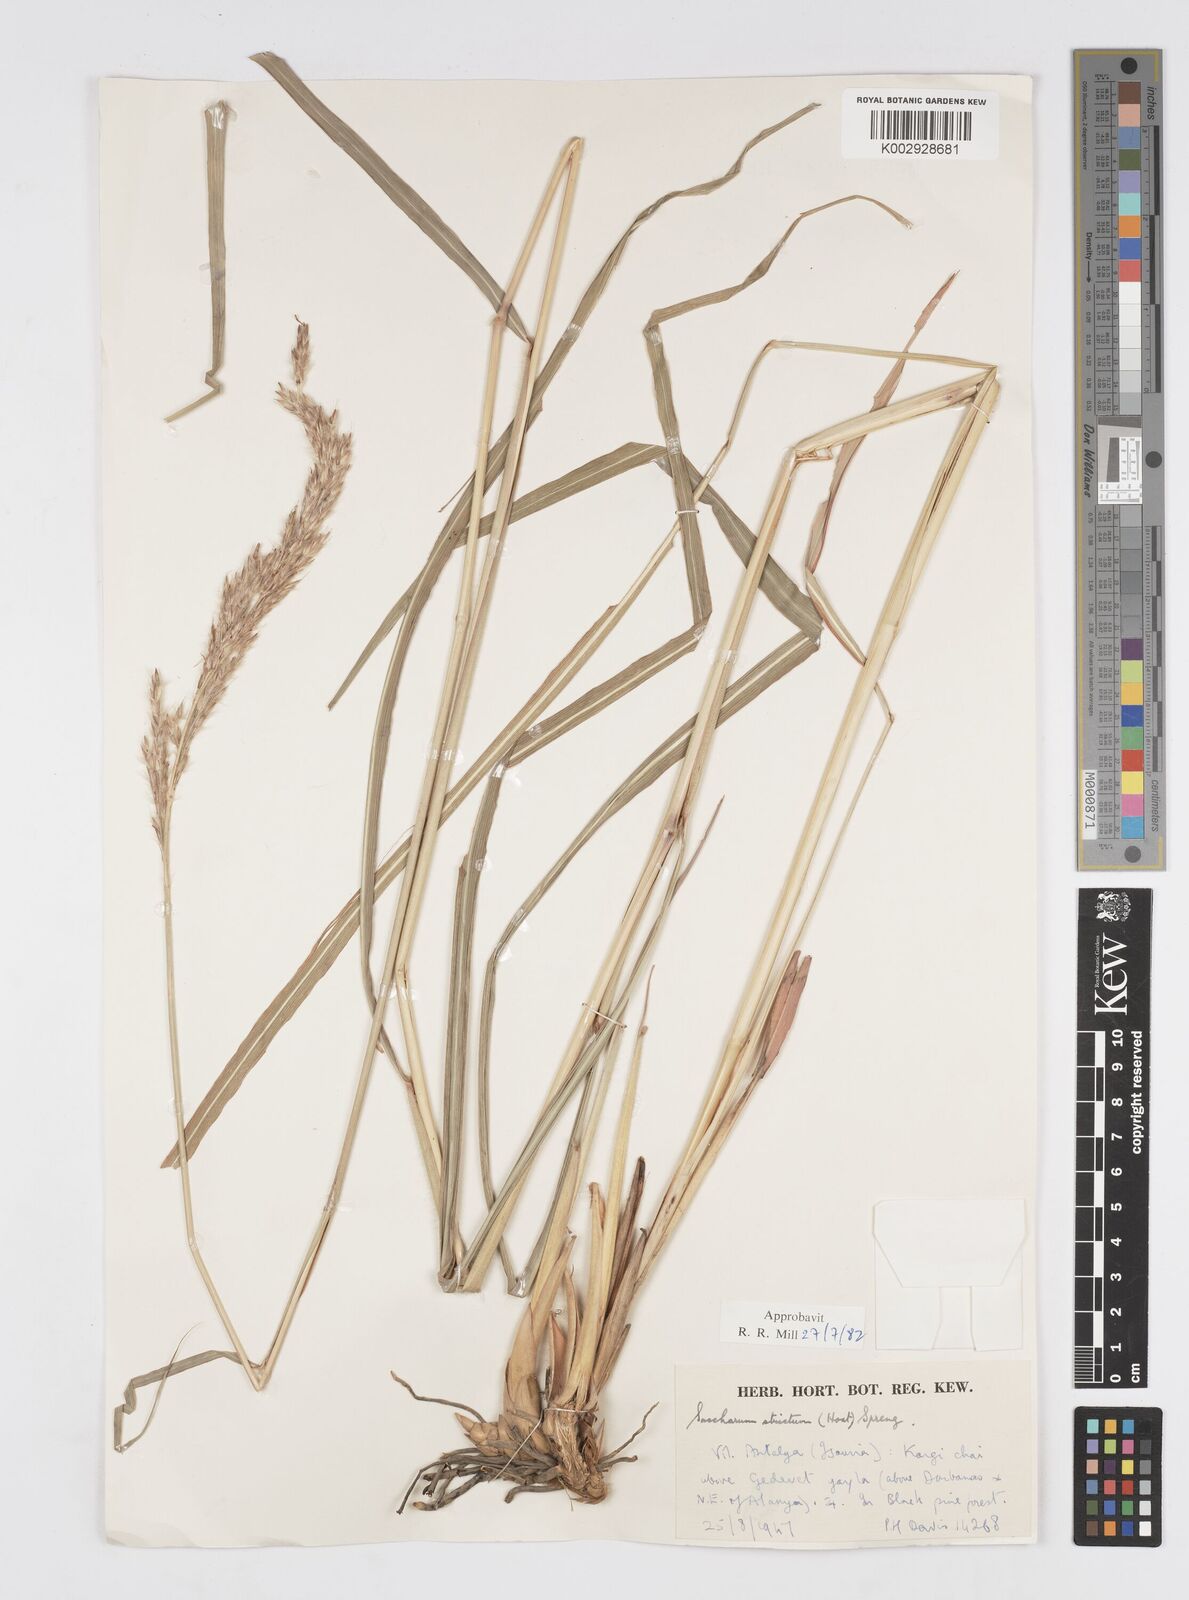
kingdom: Plantae
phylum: Tracheophyta
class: Liliopsida
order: Poales
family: Poaceae
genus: Tripidium
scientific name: Tripidium strictum
